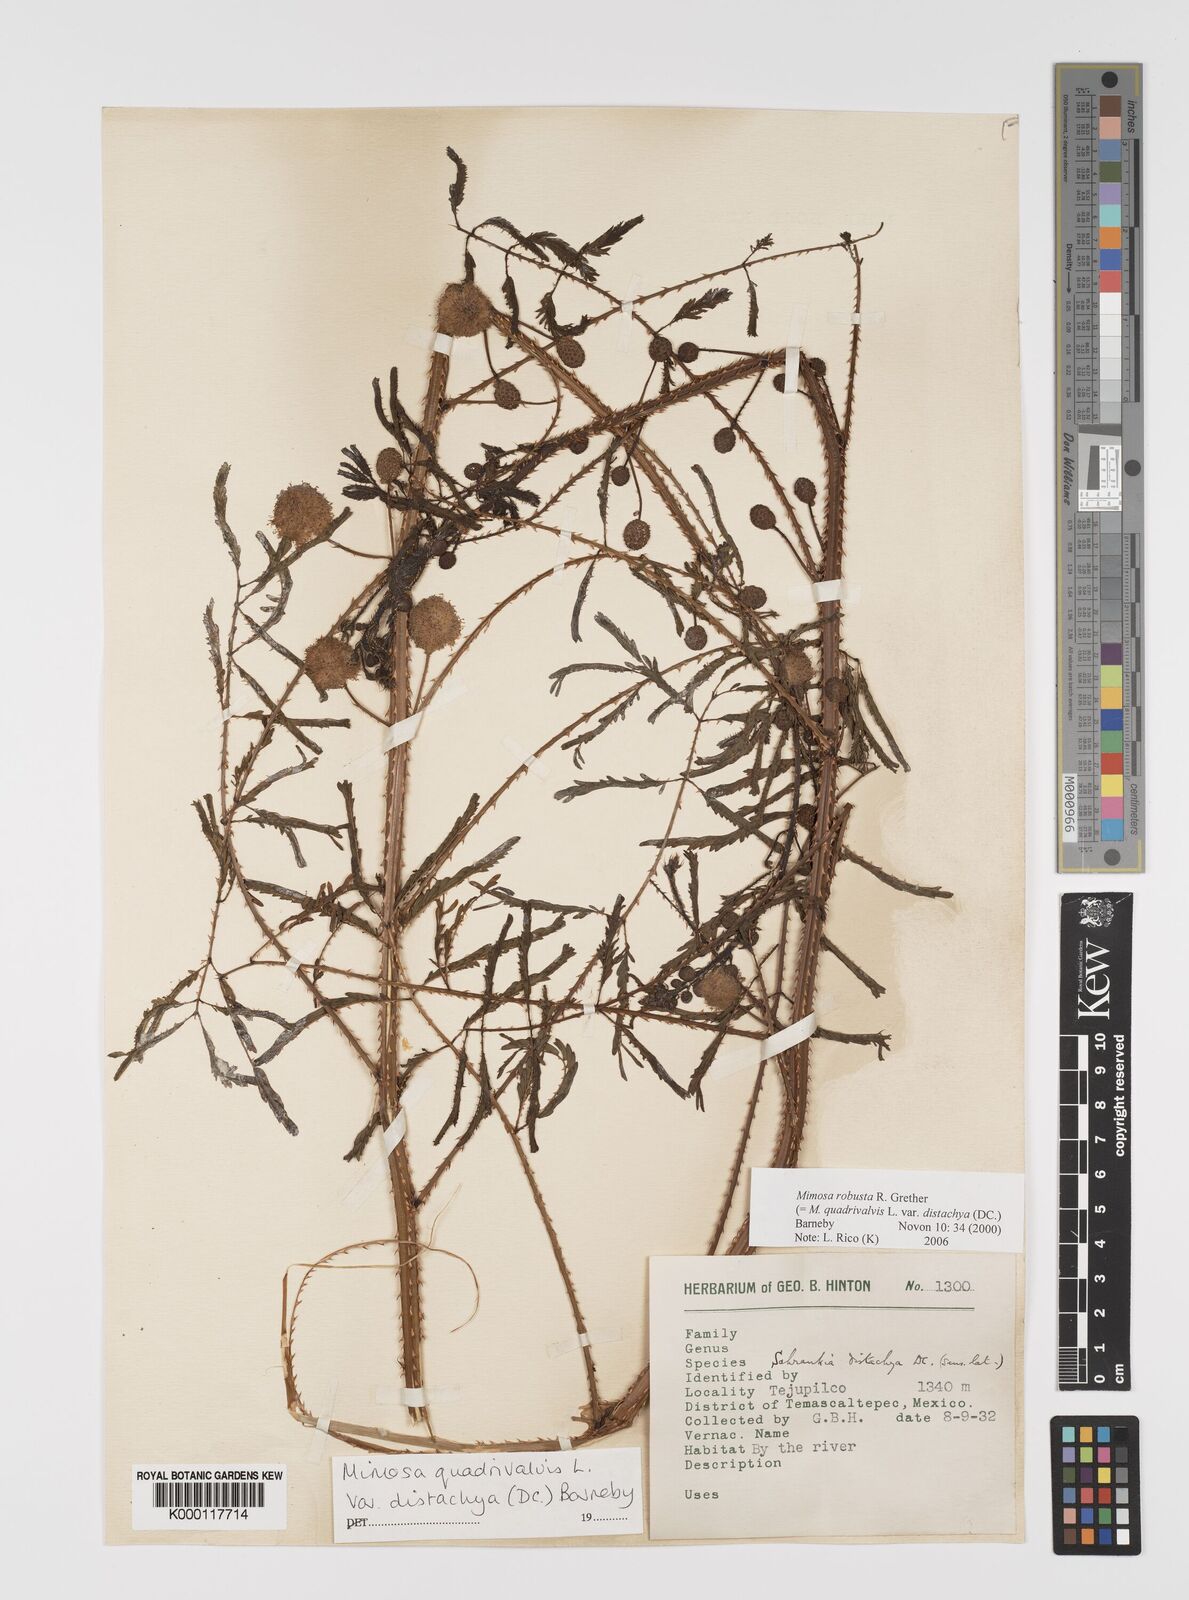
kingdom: Plantae
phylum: Tracheophyta
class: Magnoliopsida
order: Fabales
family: Fabaceae
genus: Mimosa
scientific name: Mimosa robusta
